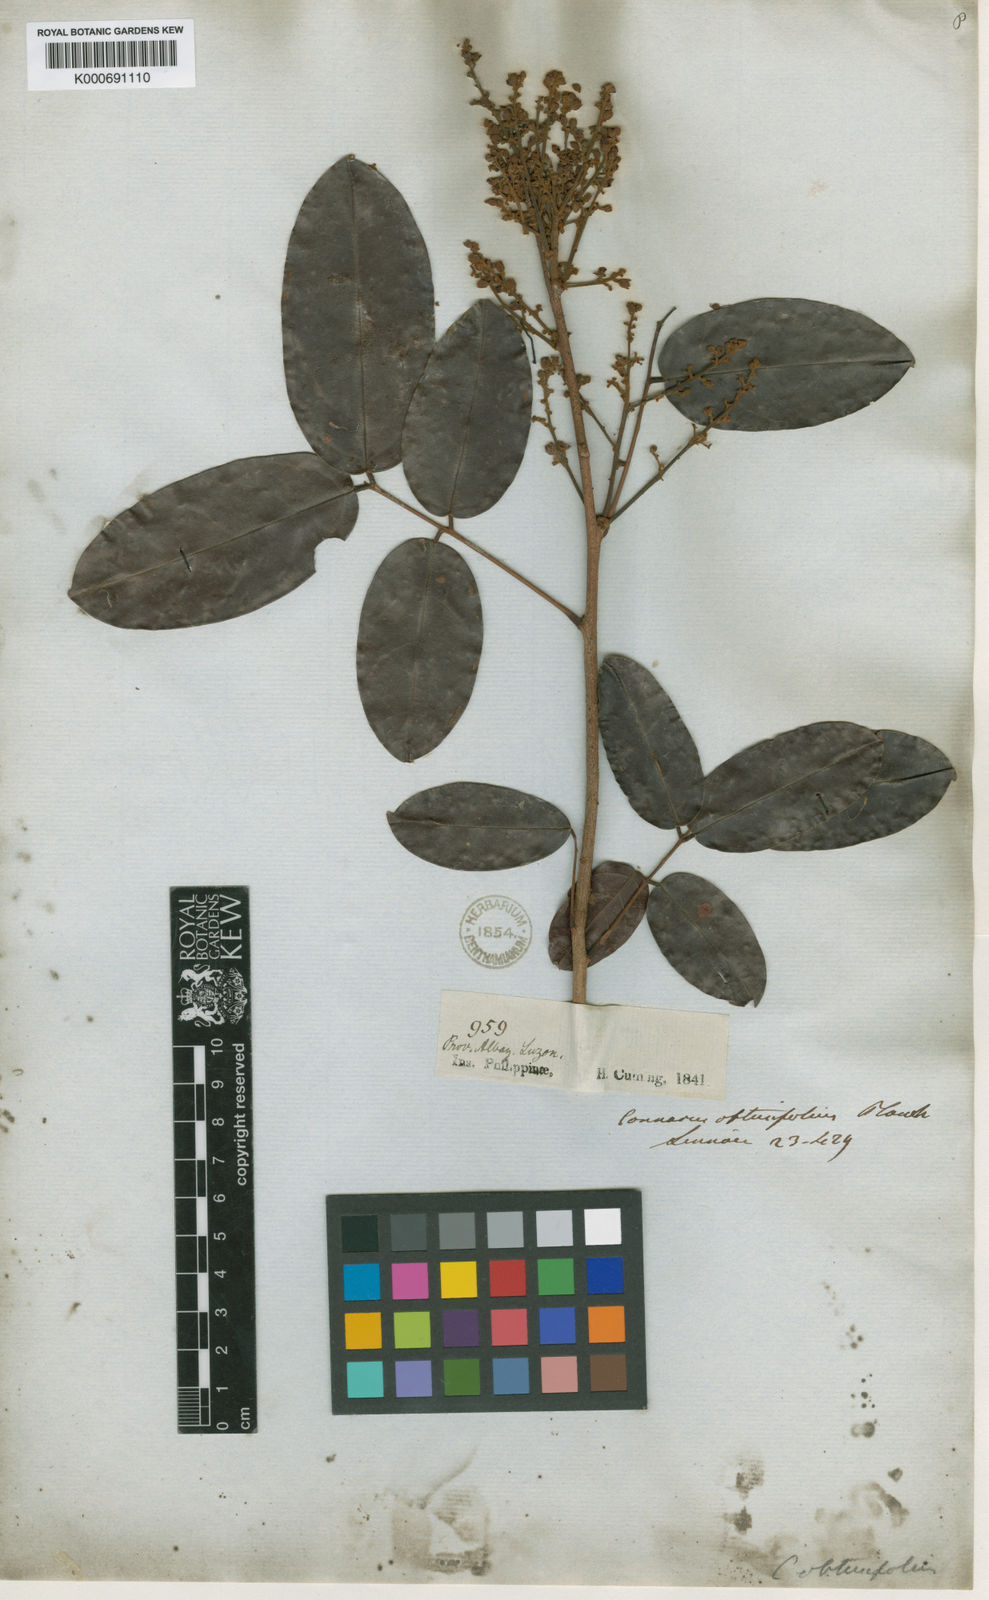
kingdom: Plantae
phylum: Tracheophyta
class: Magnoliopsida
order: Oxalidales
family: Connaraceae
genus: Connarus
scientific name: Connarus semidecandrus
